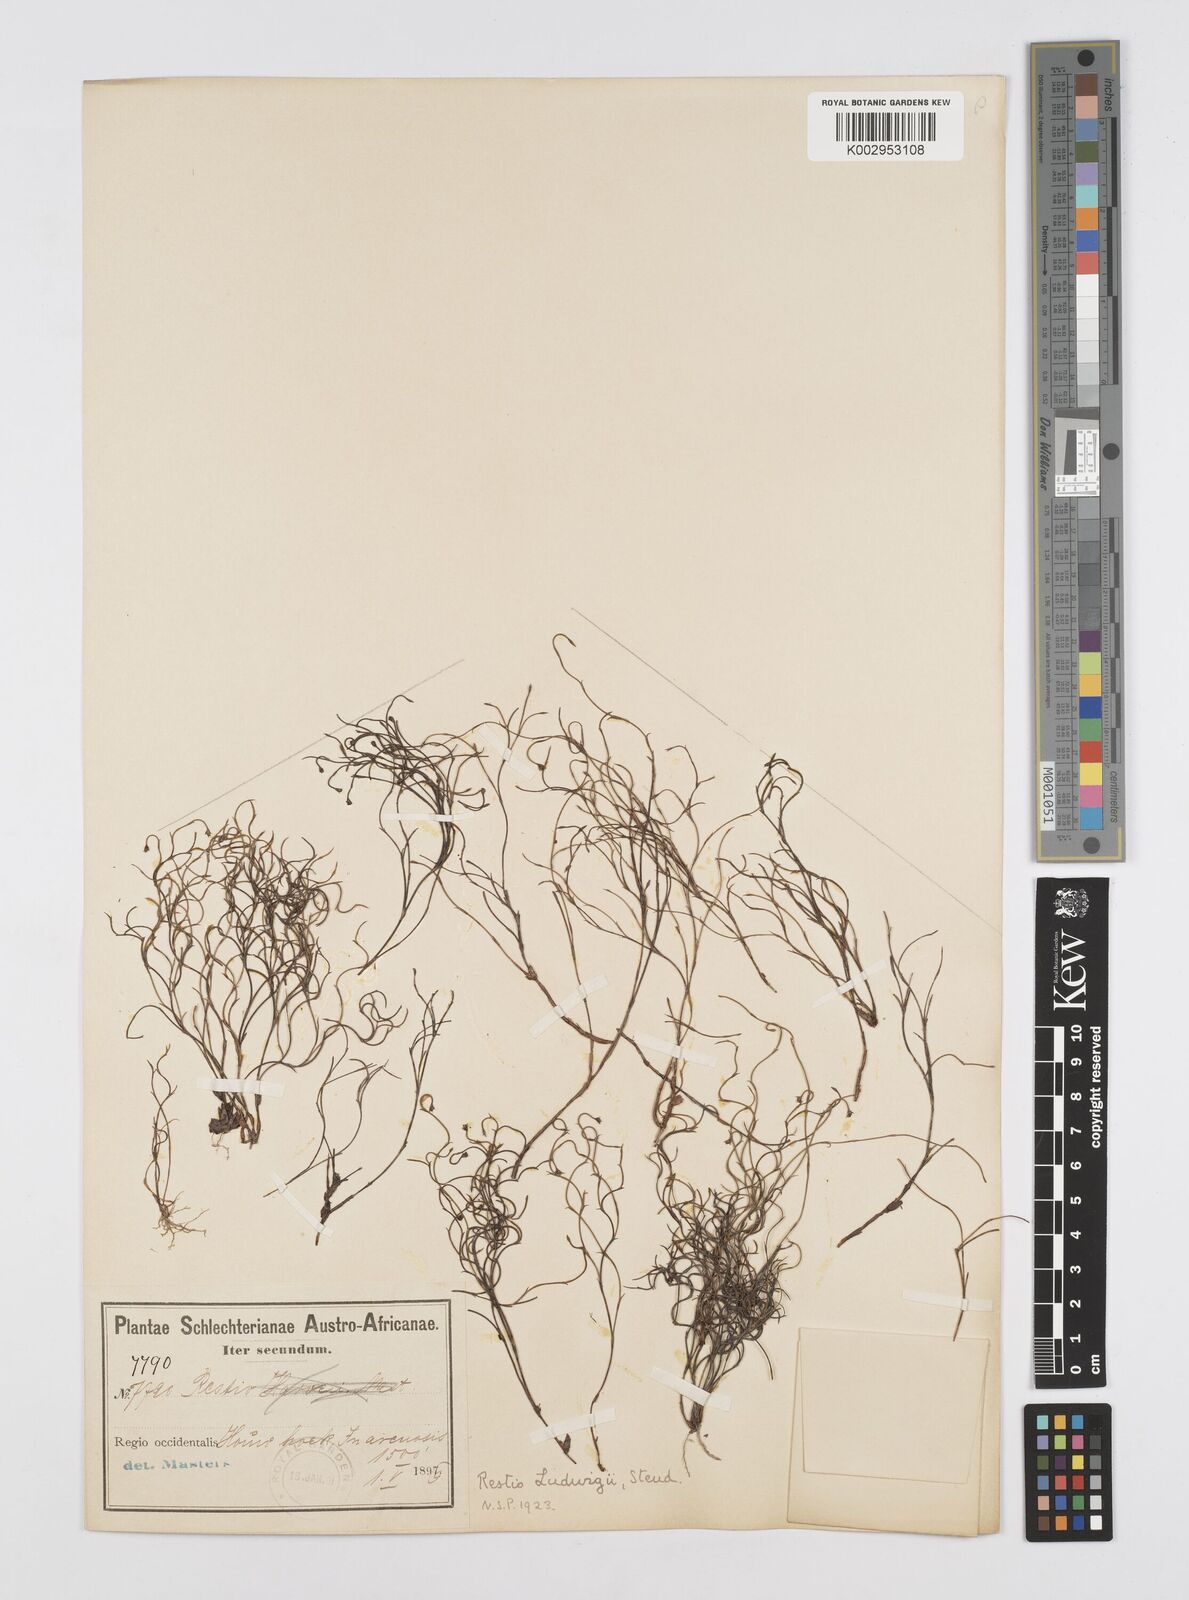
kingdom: Plantae
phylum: Tracheophyta
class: Liliopsida
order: Poales
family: Restionaceae
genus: Restio
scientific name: Restio tenuissimus
